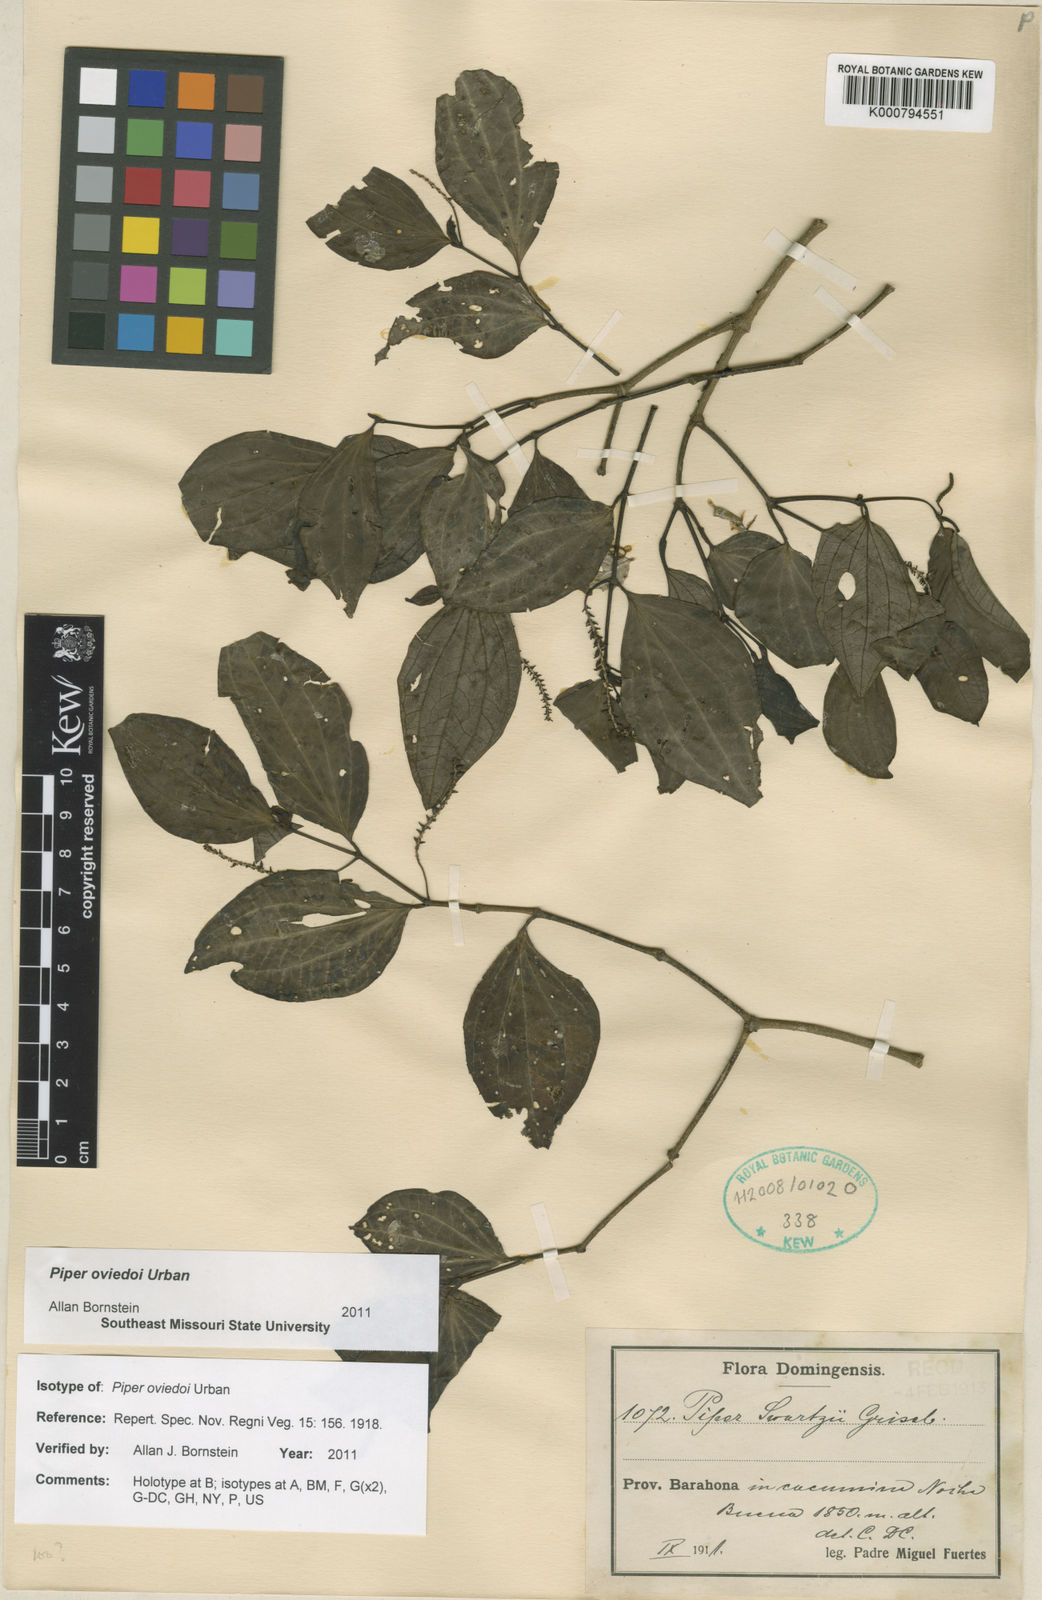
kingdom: Plantae
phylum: Tracheophyta
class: Magnoliopsida
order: Piperales
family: Piperaceae
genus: Piper
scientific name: Piper oviedoi
